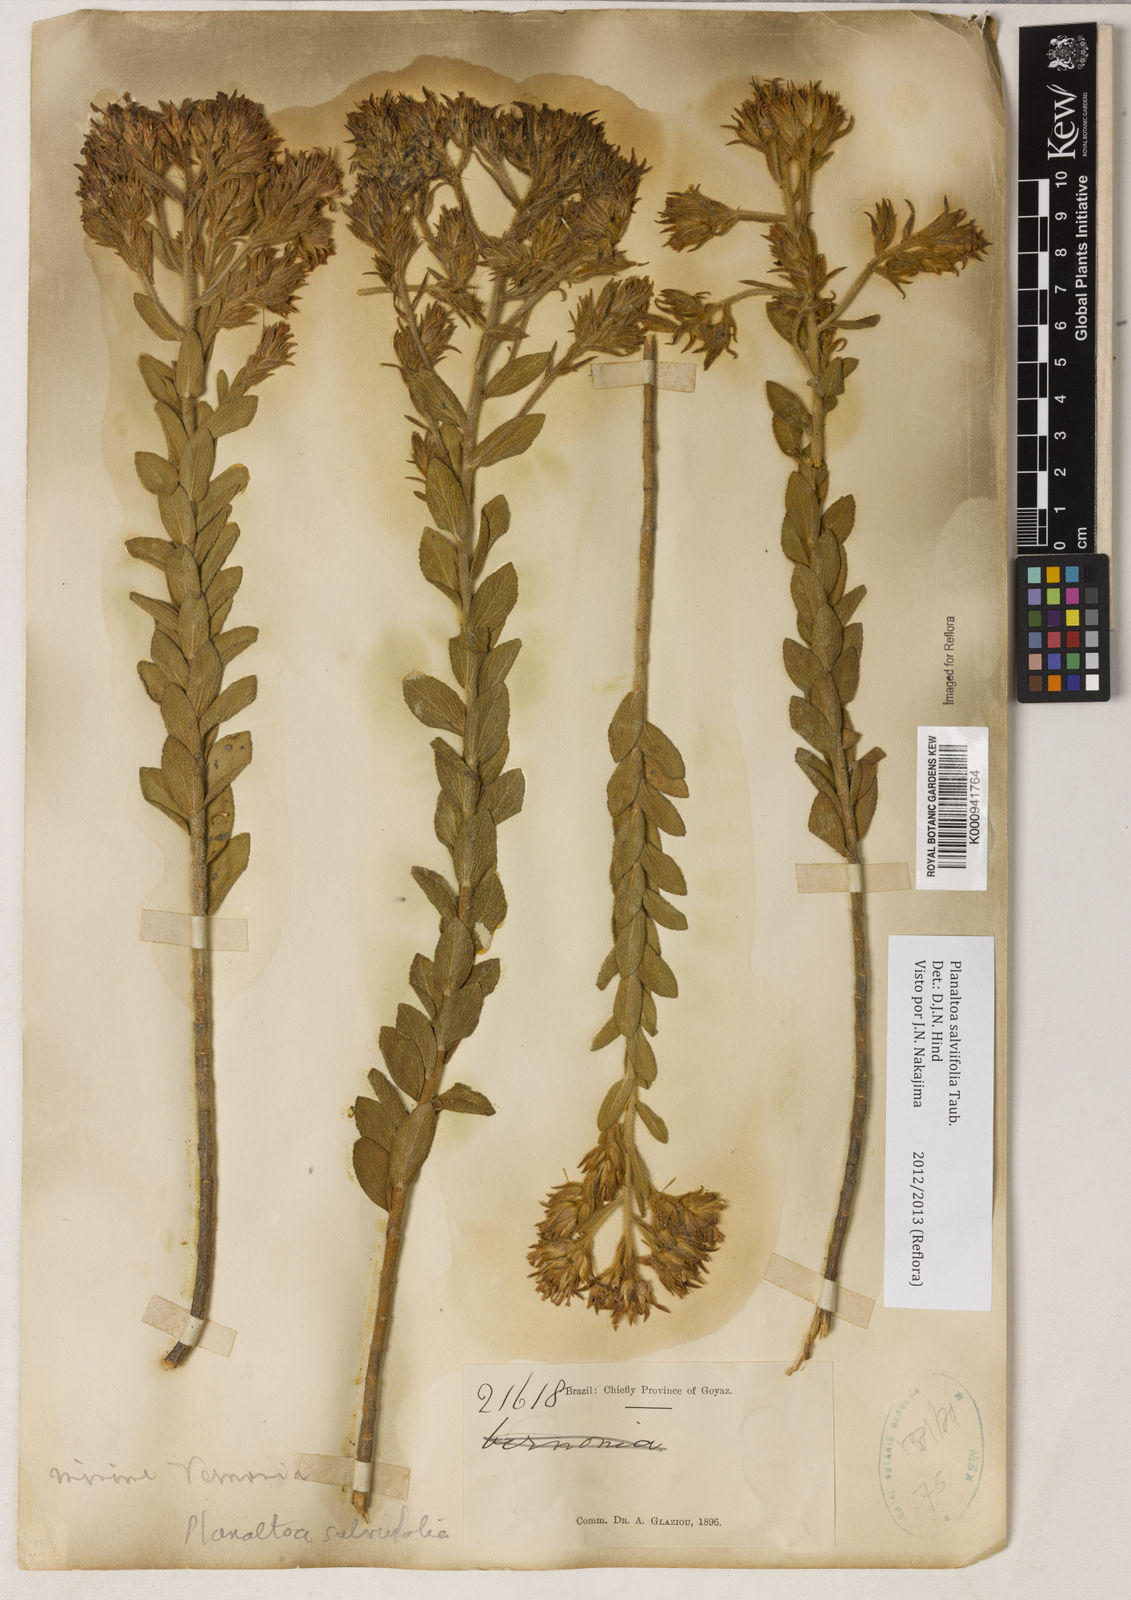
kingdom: Plantae
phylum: Tracheophyta
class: Magnoliopsida
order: Asterales
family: Asteraceae
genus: Planaltoa
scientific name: Planaltoa salviifolia
